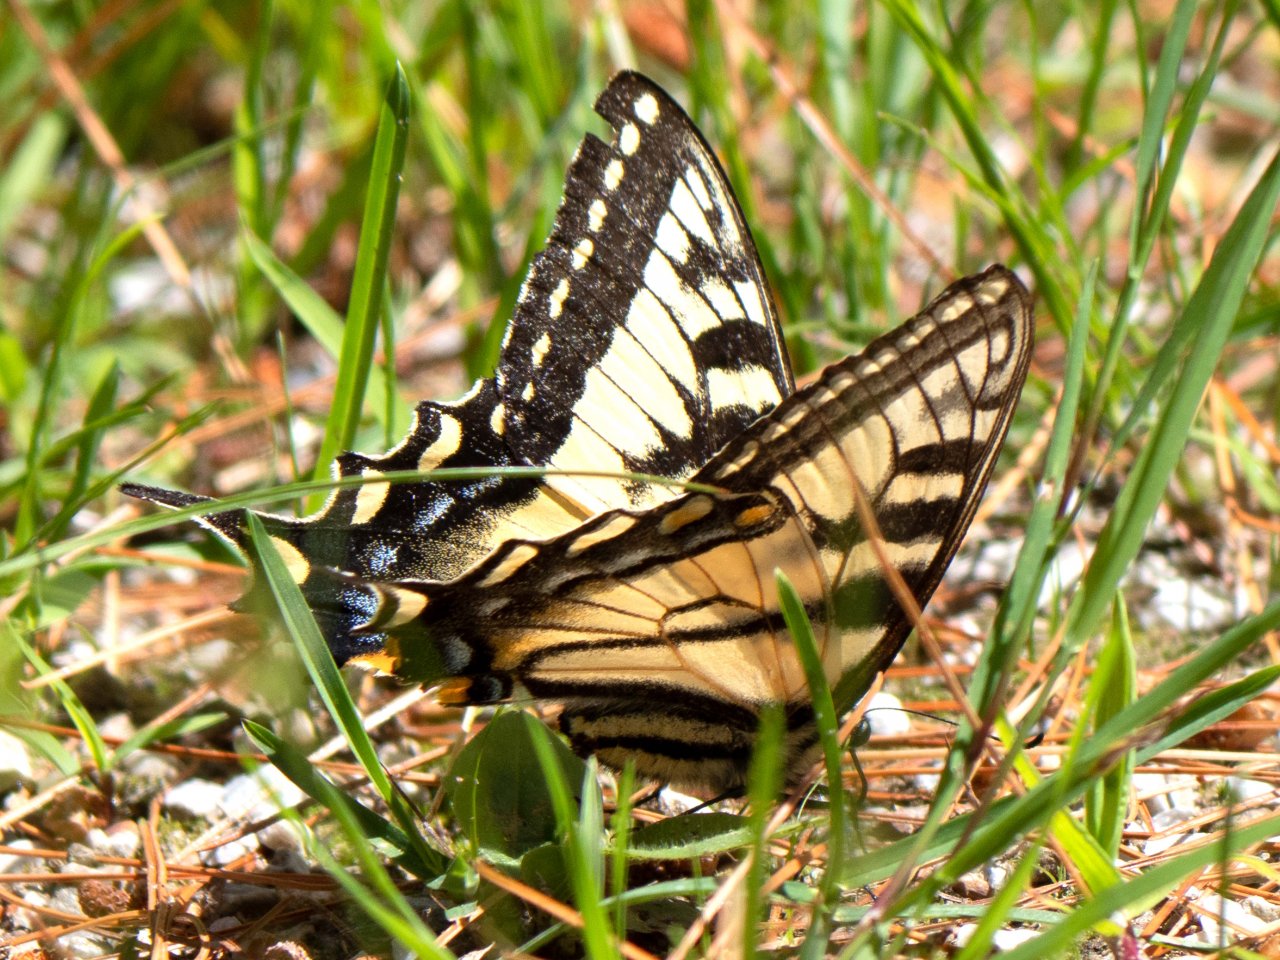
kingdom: Animalia
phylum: Arthropoda
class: Insecta
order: Lepidoptera
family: Papilionidae
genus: Pterourus
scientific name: Pterourus
